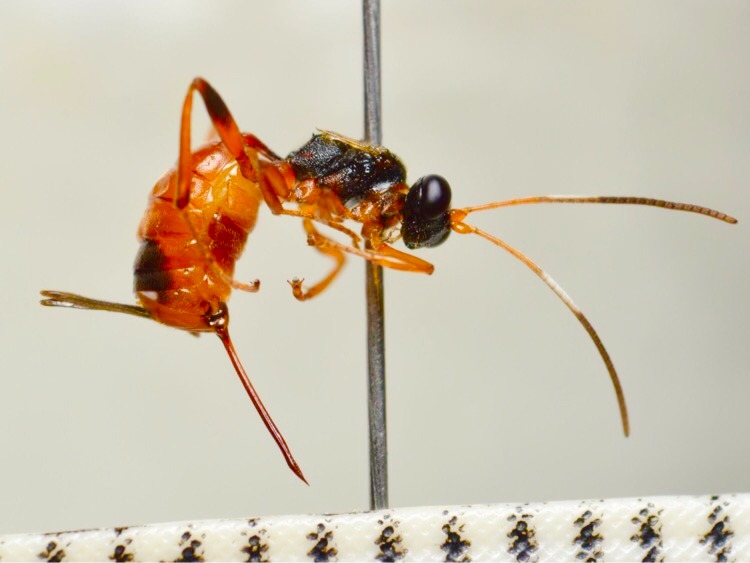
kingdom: Animalia
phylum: Arthropoda
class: Insecta
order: Hymenoptera
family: Ichneumonidae
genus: Agrothereutes
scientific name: Agrothereutes abbreviatus
